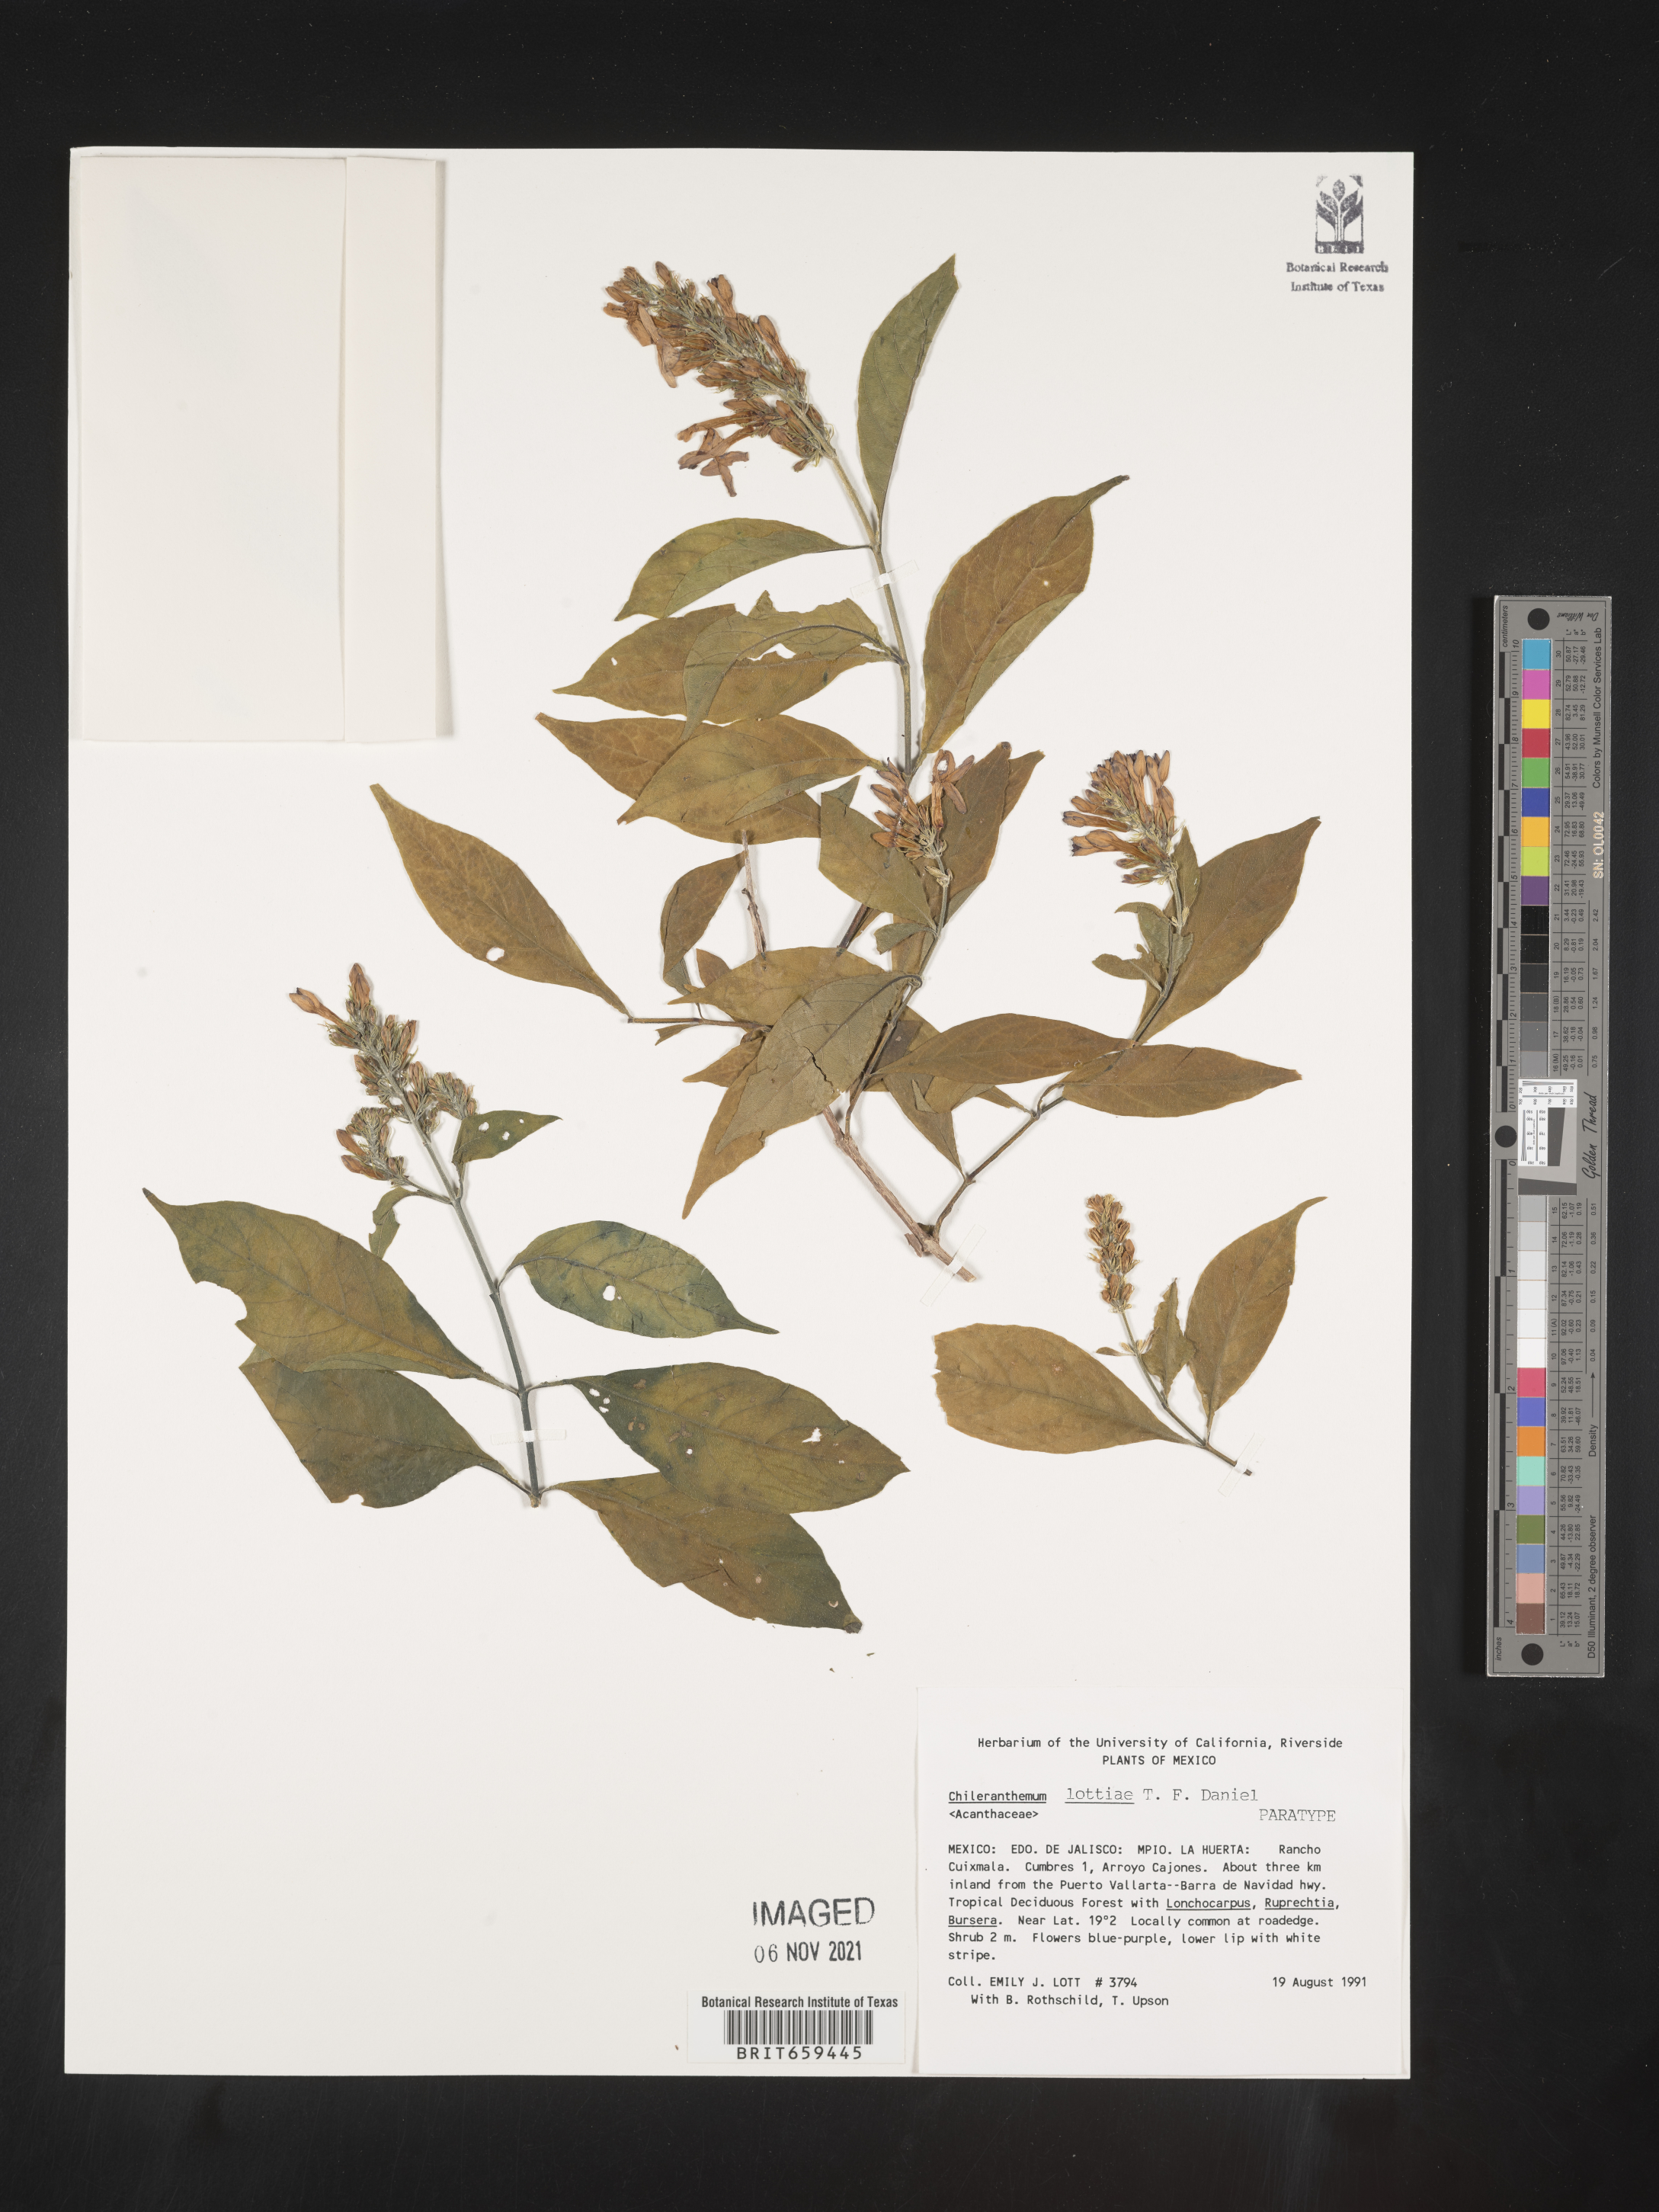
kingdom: Plantae
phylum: Tracheophyta
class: Magnoliopsida
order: Lamiales
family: Acanthaceae
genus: Chileranthemum
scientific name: Chileranthemum
